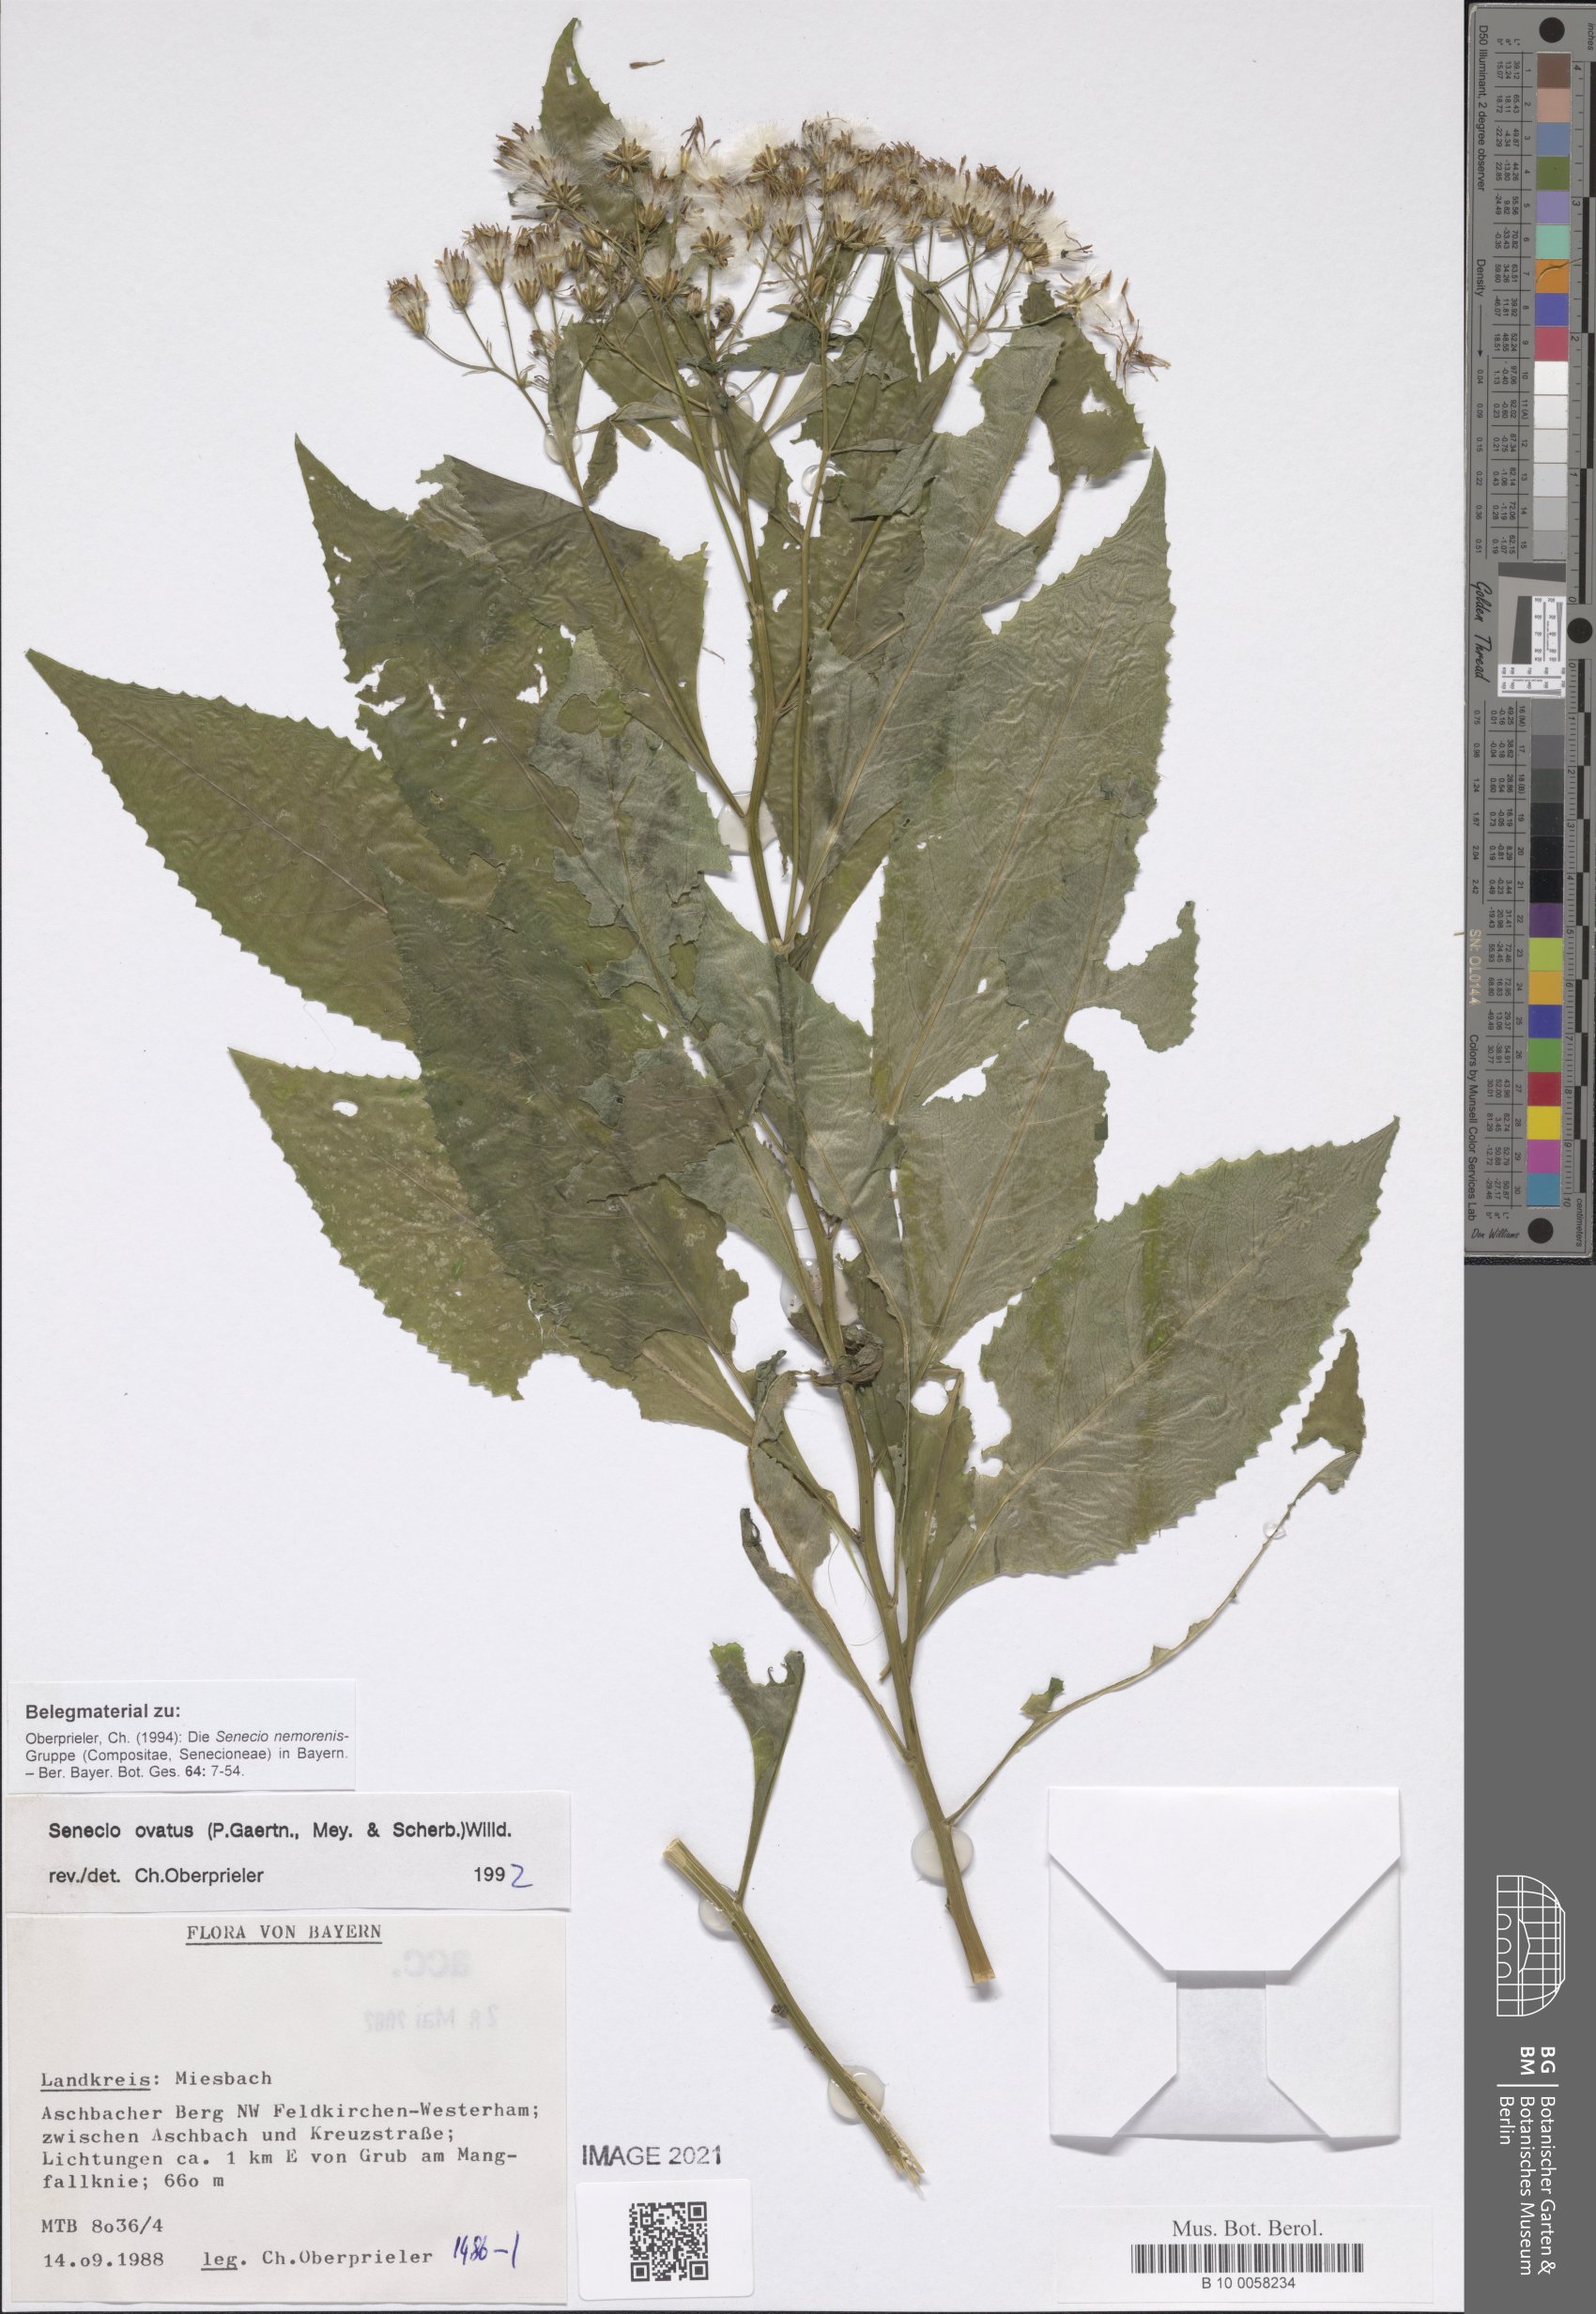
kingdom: Plantae
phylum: Tracheophyta
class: Magnoliopsida
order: Asterales
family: Asteraceae
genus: Senecio
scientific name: Senecio ovatus
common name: Wood ragwort
